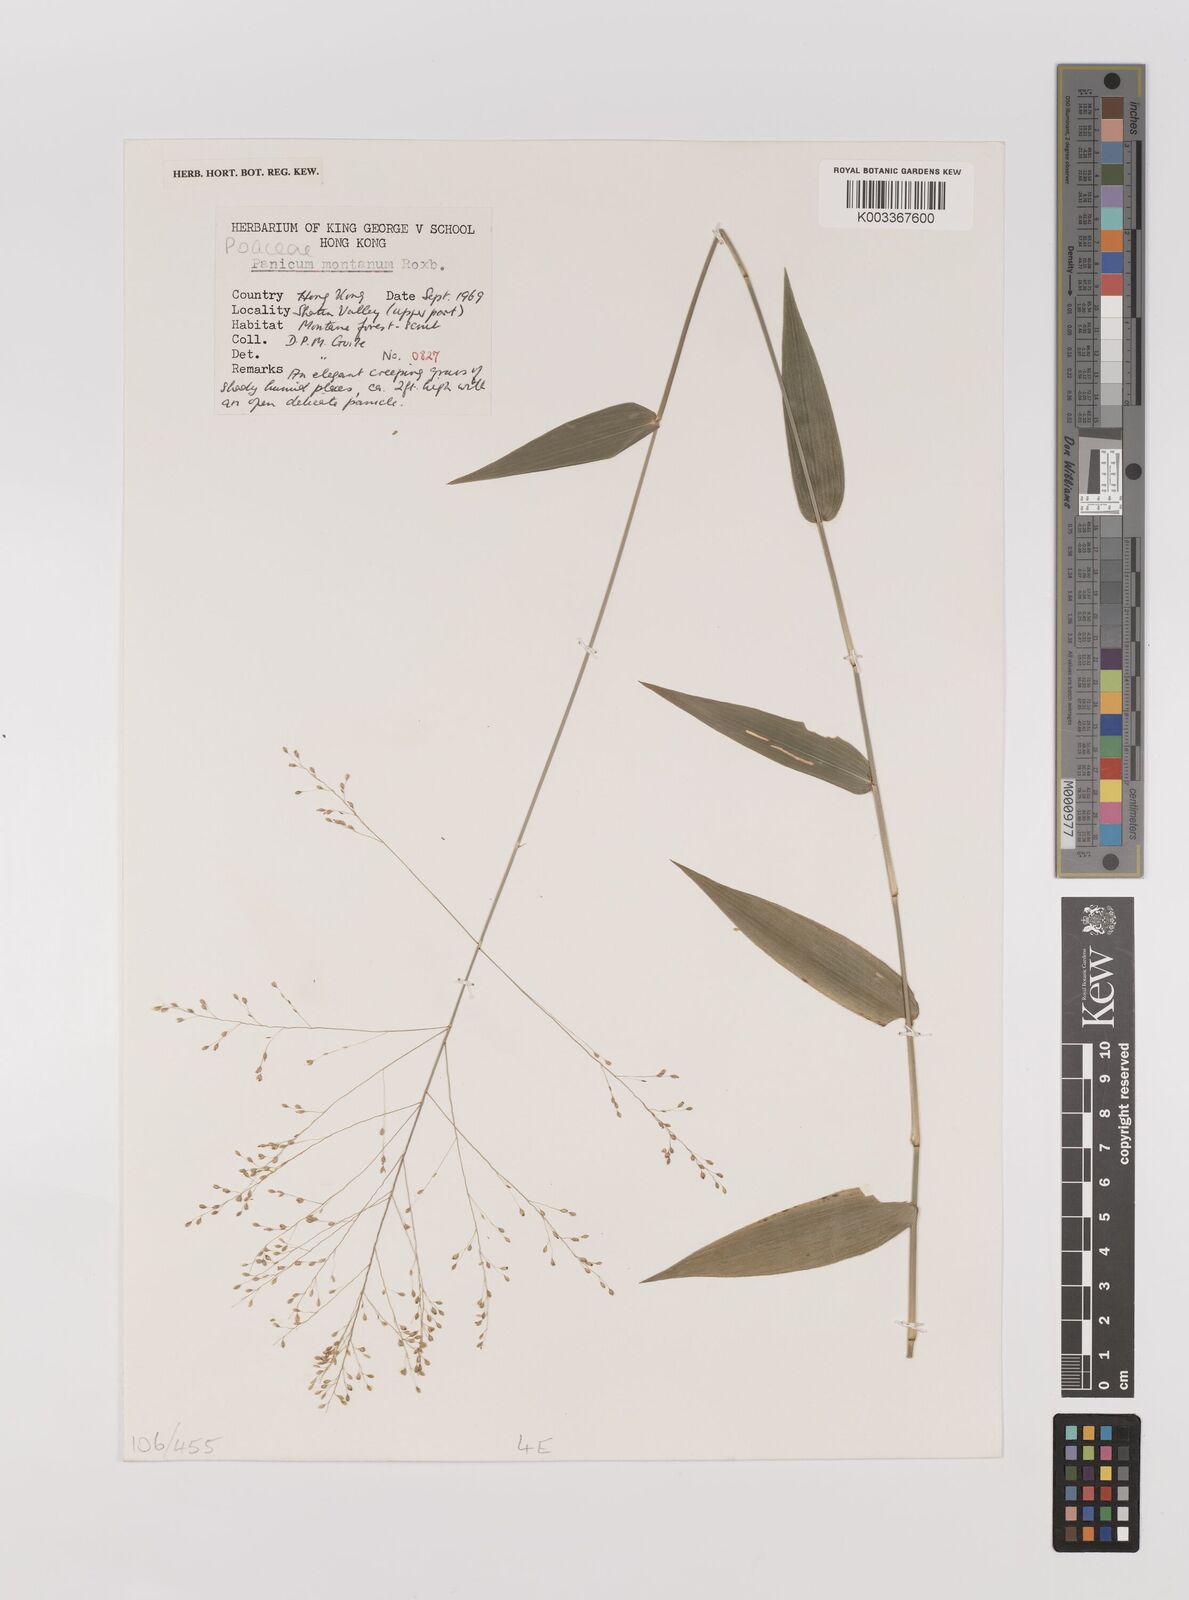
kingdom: Plantae
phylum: Tracheophyta
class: Liliopsida
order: Poales
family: Poaceae
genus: Panicum
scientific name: Panicum notatum
